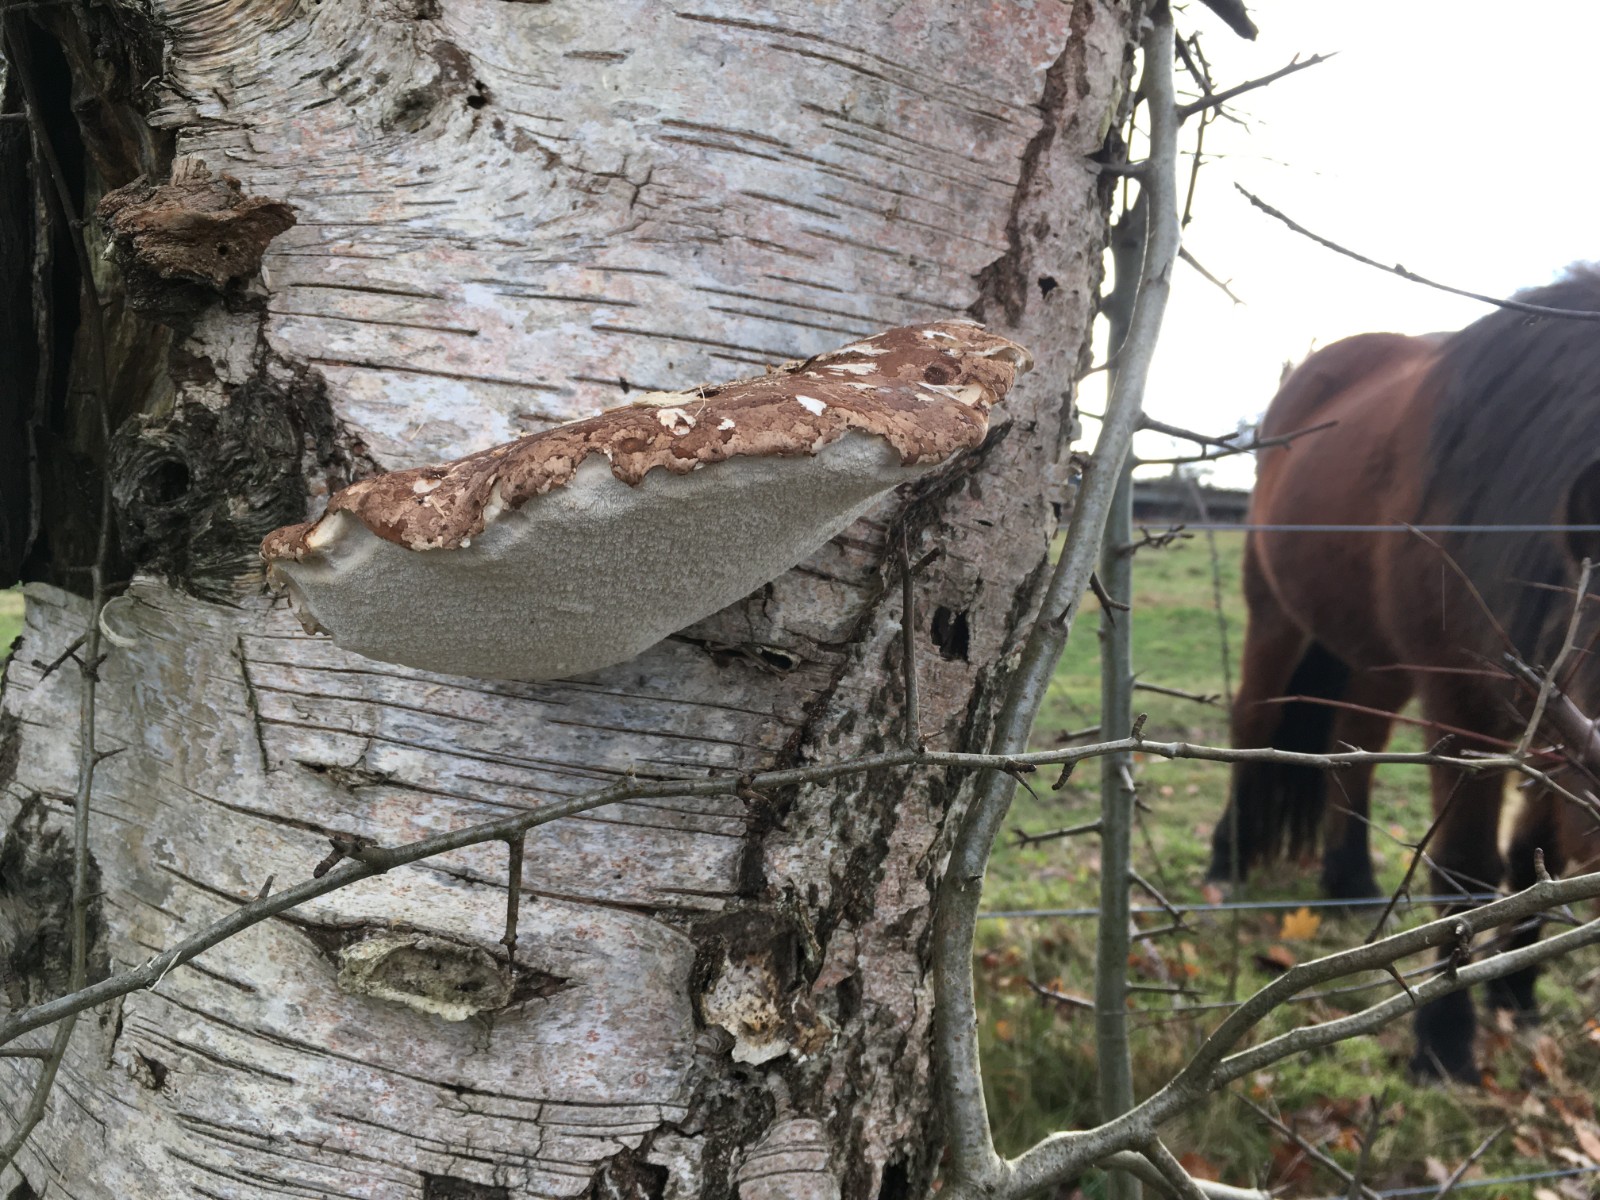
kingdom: Fungi
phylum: Basidiomycota
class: Agaricomycetes
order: Polyporales
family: Fomitopsidaceae
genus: Fomitopsis
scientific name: Fomitopsis betulina
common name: birkeporesvamp
